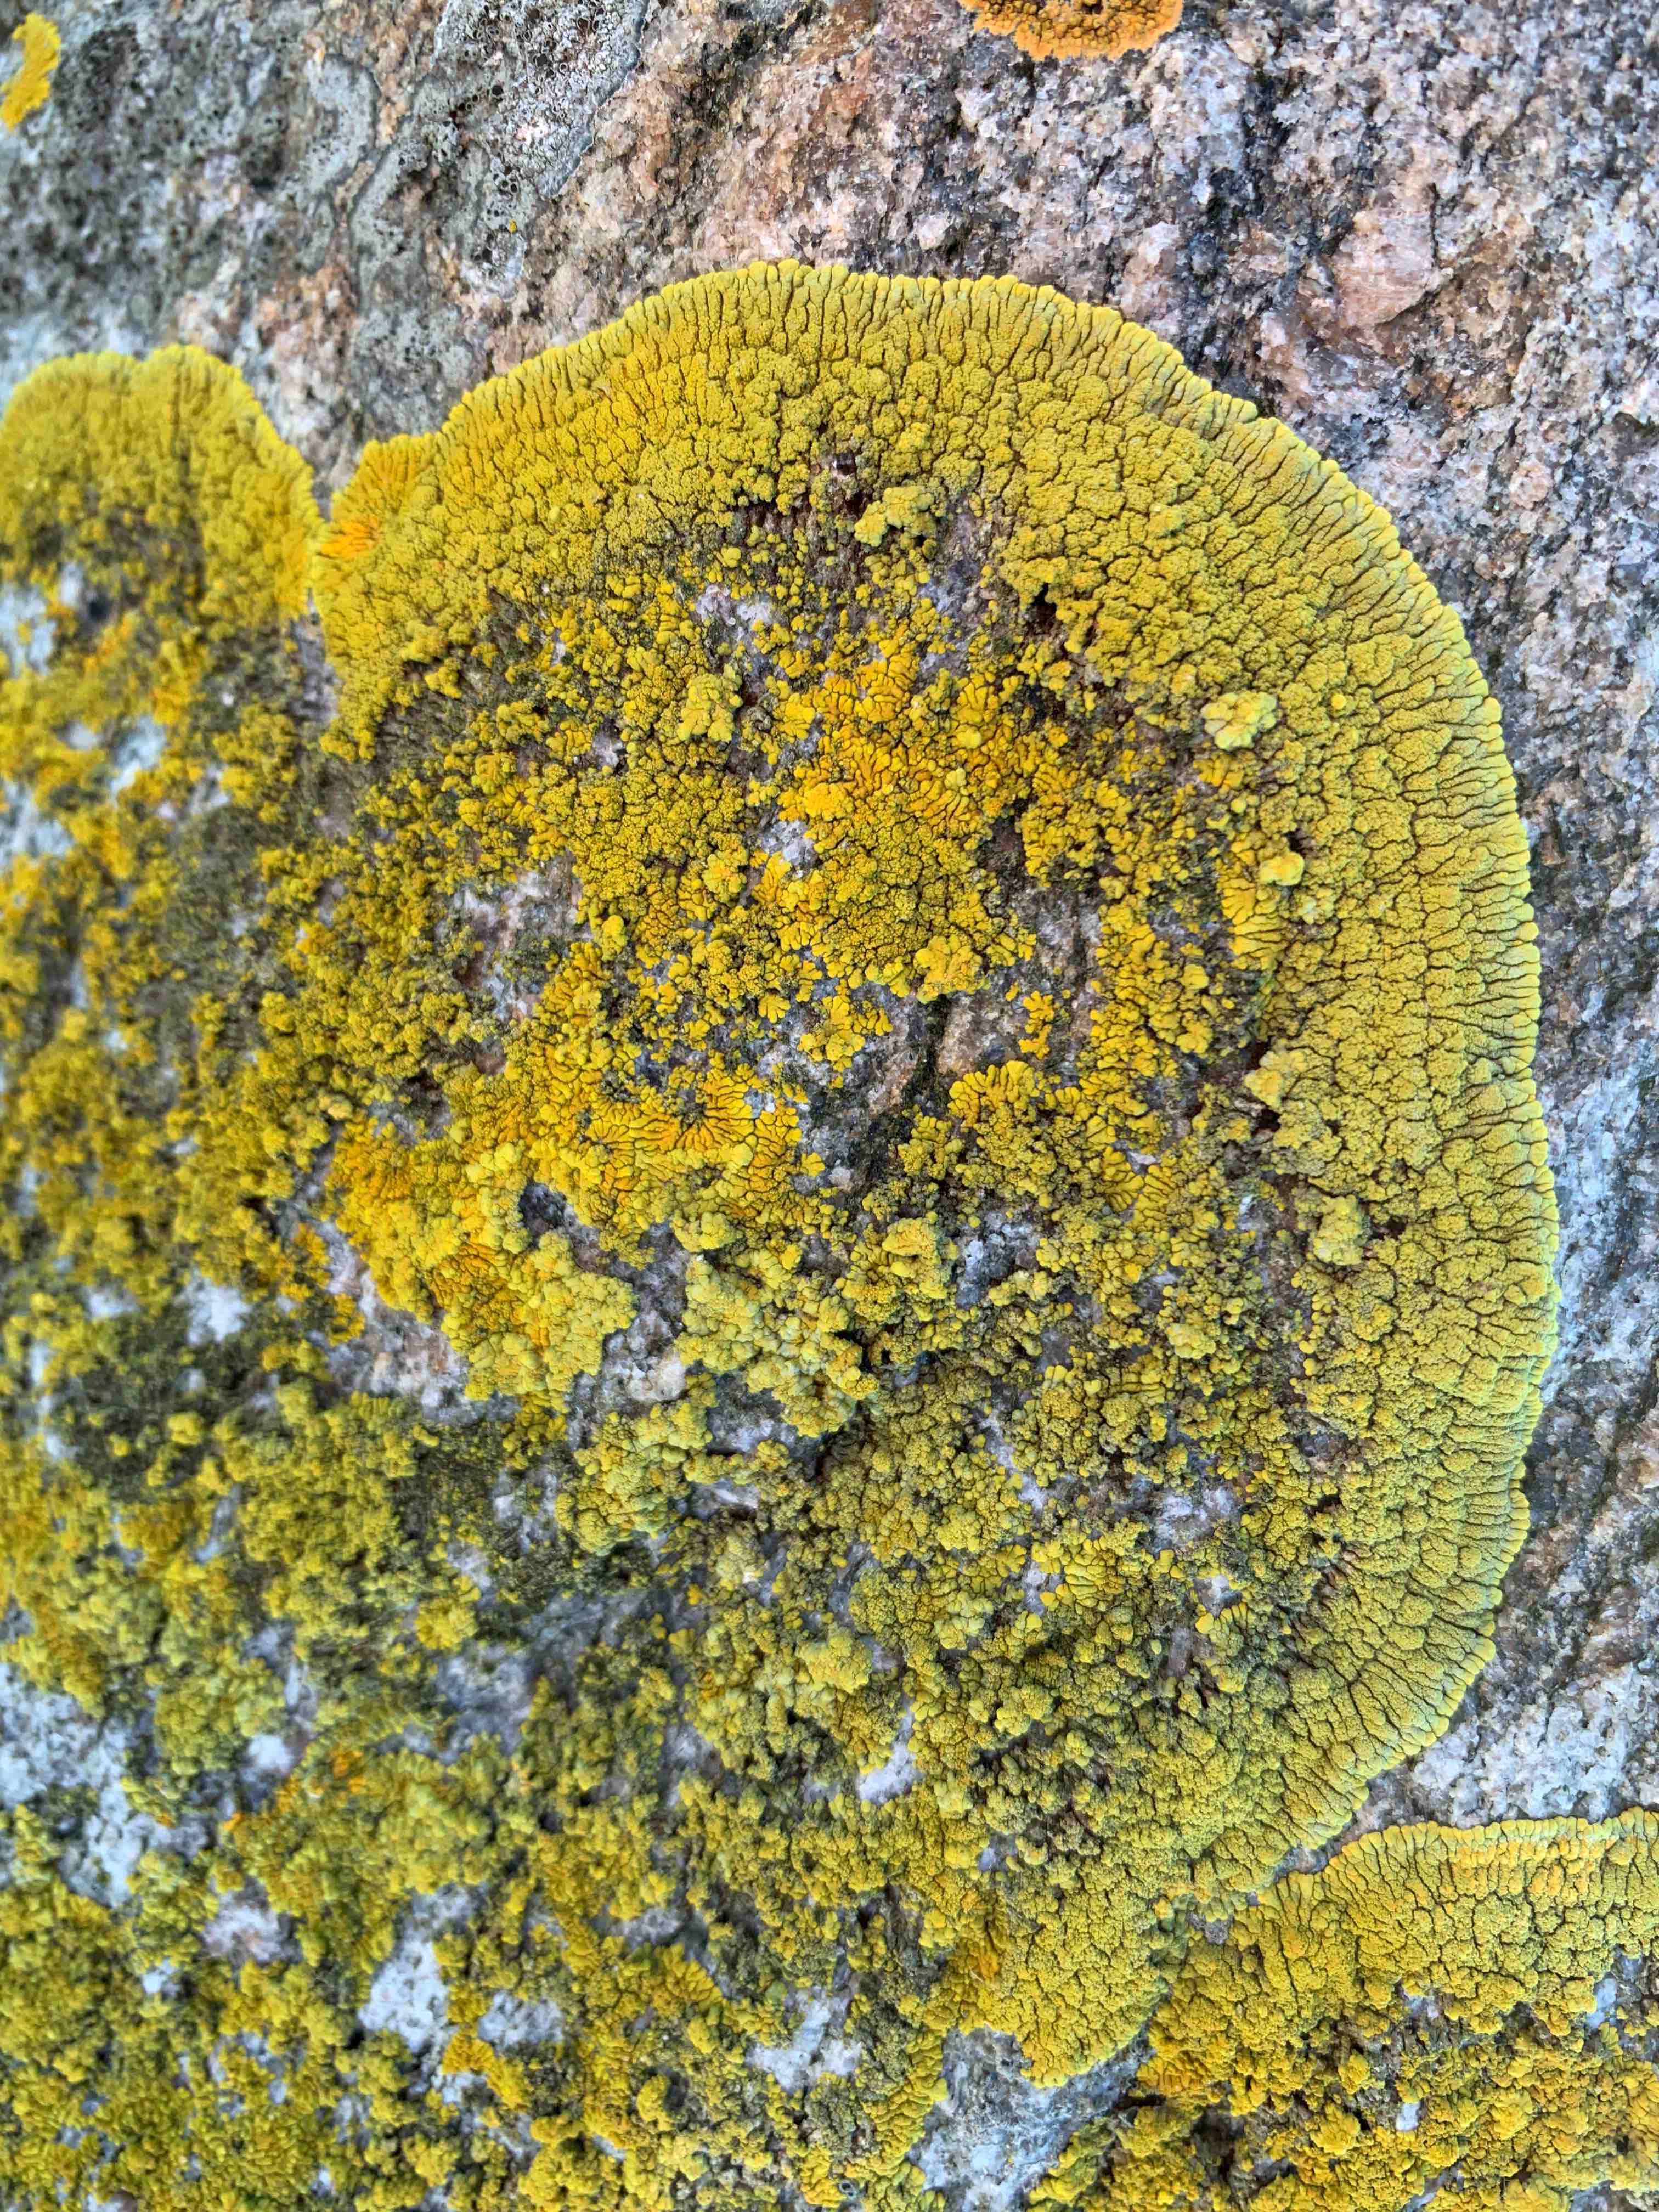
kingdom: Fungi
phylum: Ascomycota
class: Lecanoromycetes
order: Teloschistales
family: Teloschistaceae
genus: Verrucoplaca
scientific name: Verrucoplaca verruculifera
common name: koldkyst-orangelav
